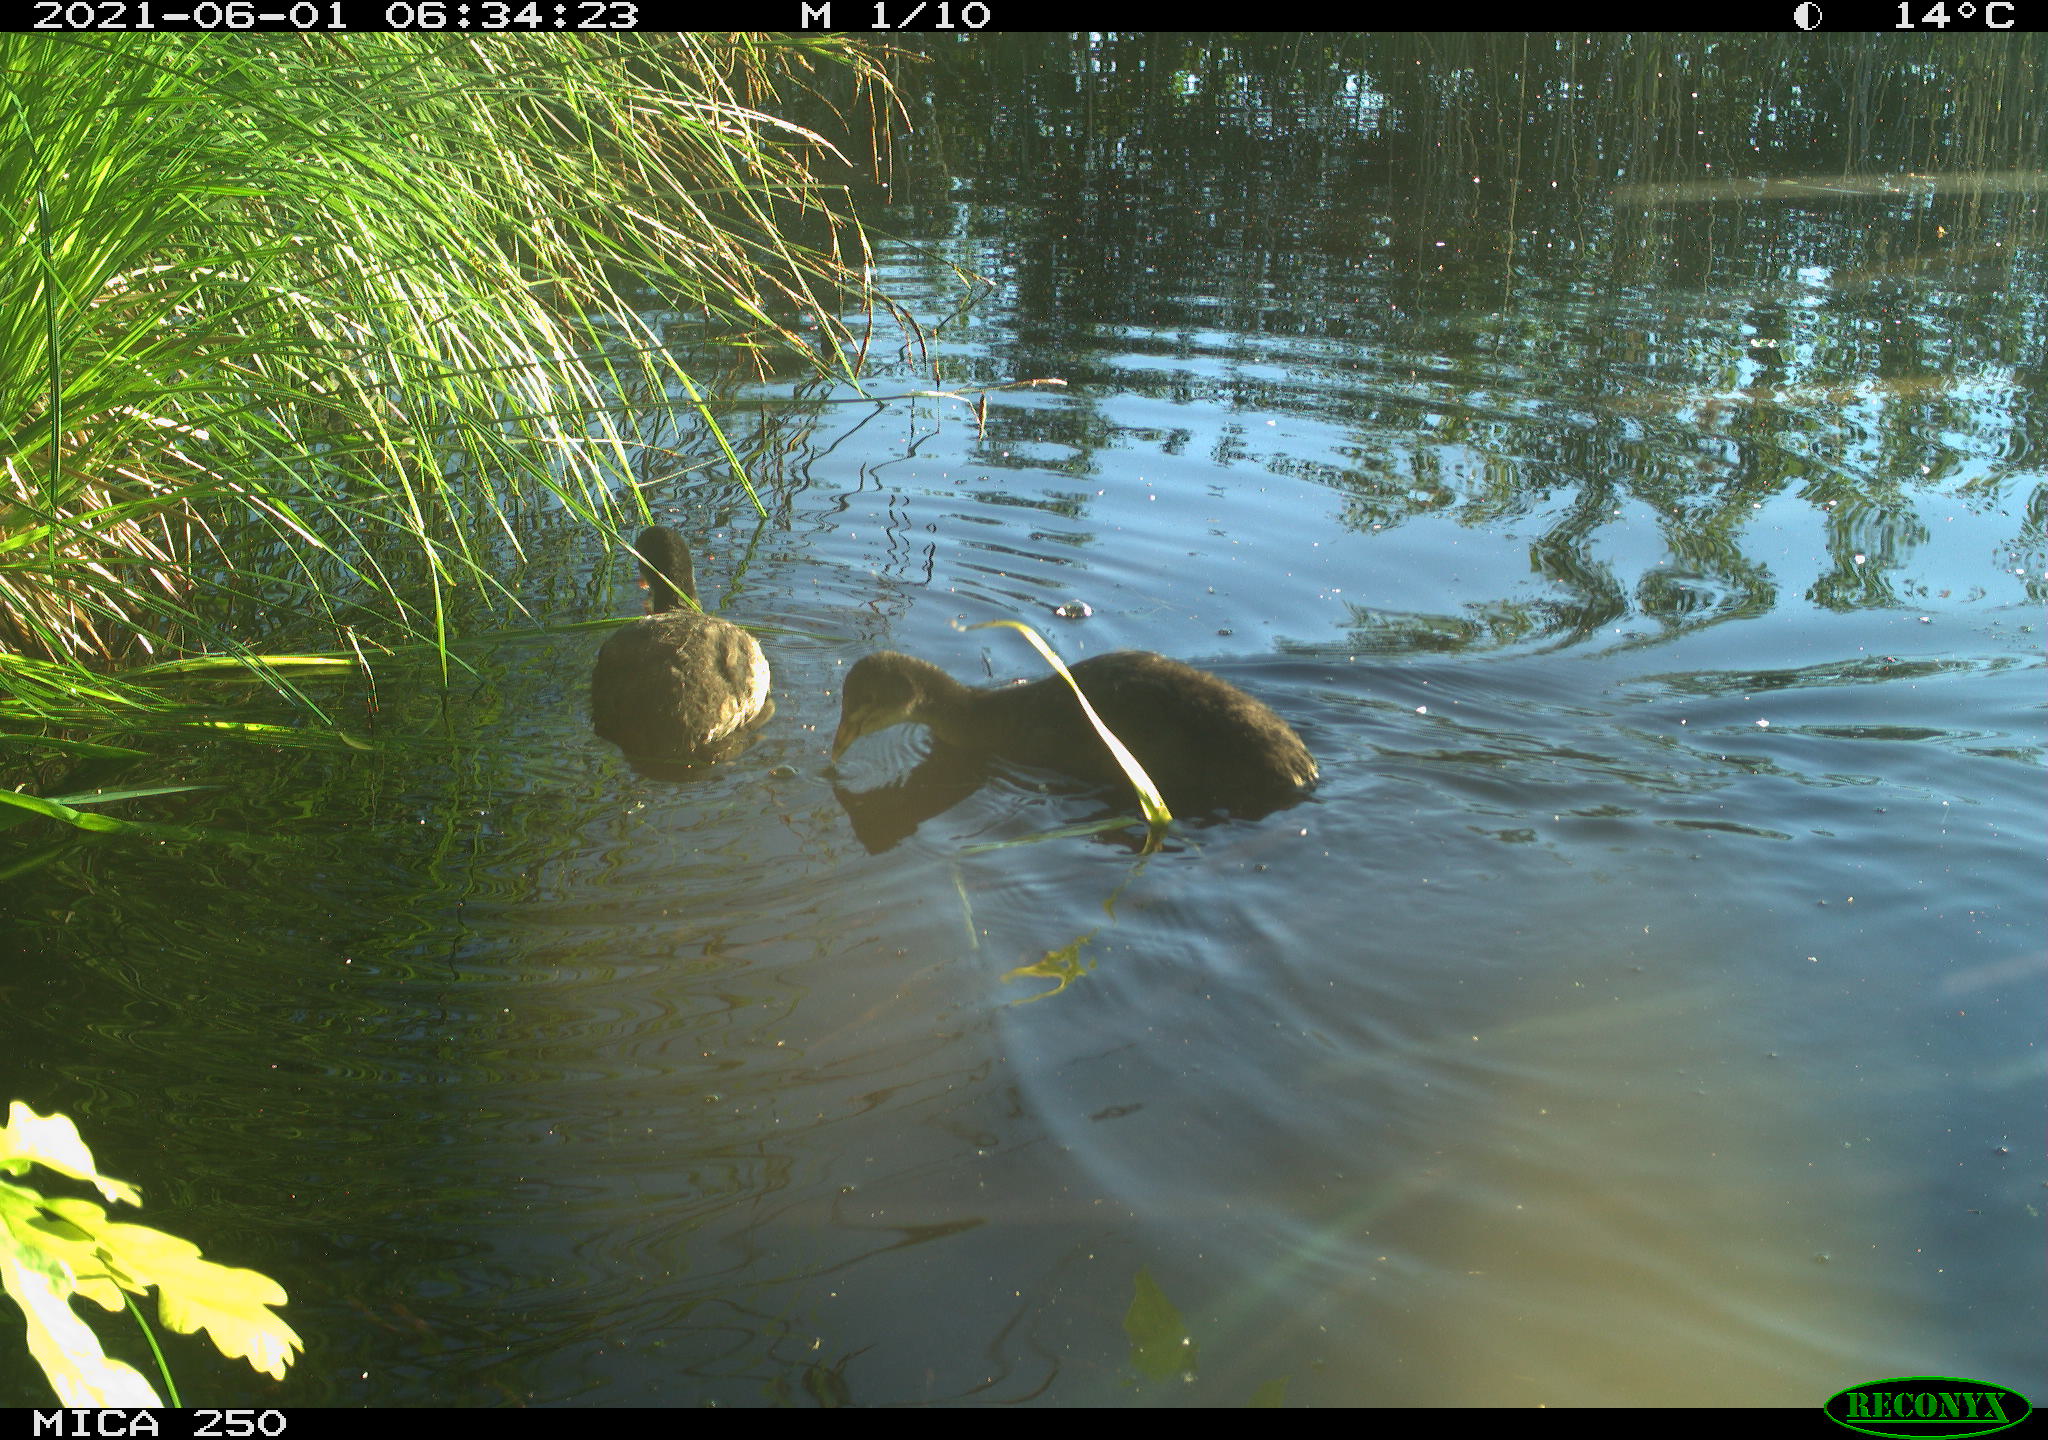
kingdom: Animalia
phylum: Chordata
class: Aves
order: Anseriformes
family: Anatidae
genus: Mareca
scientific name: Mareca strepera
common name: Gadwall
